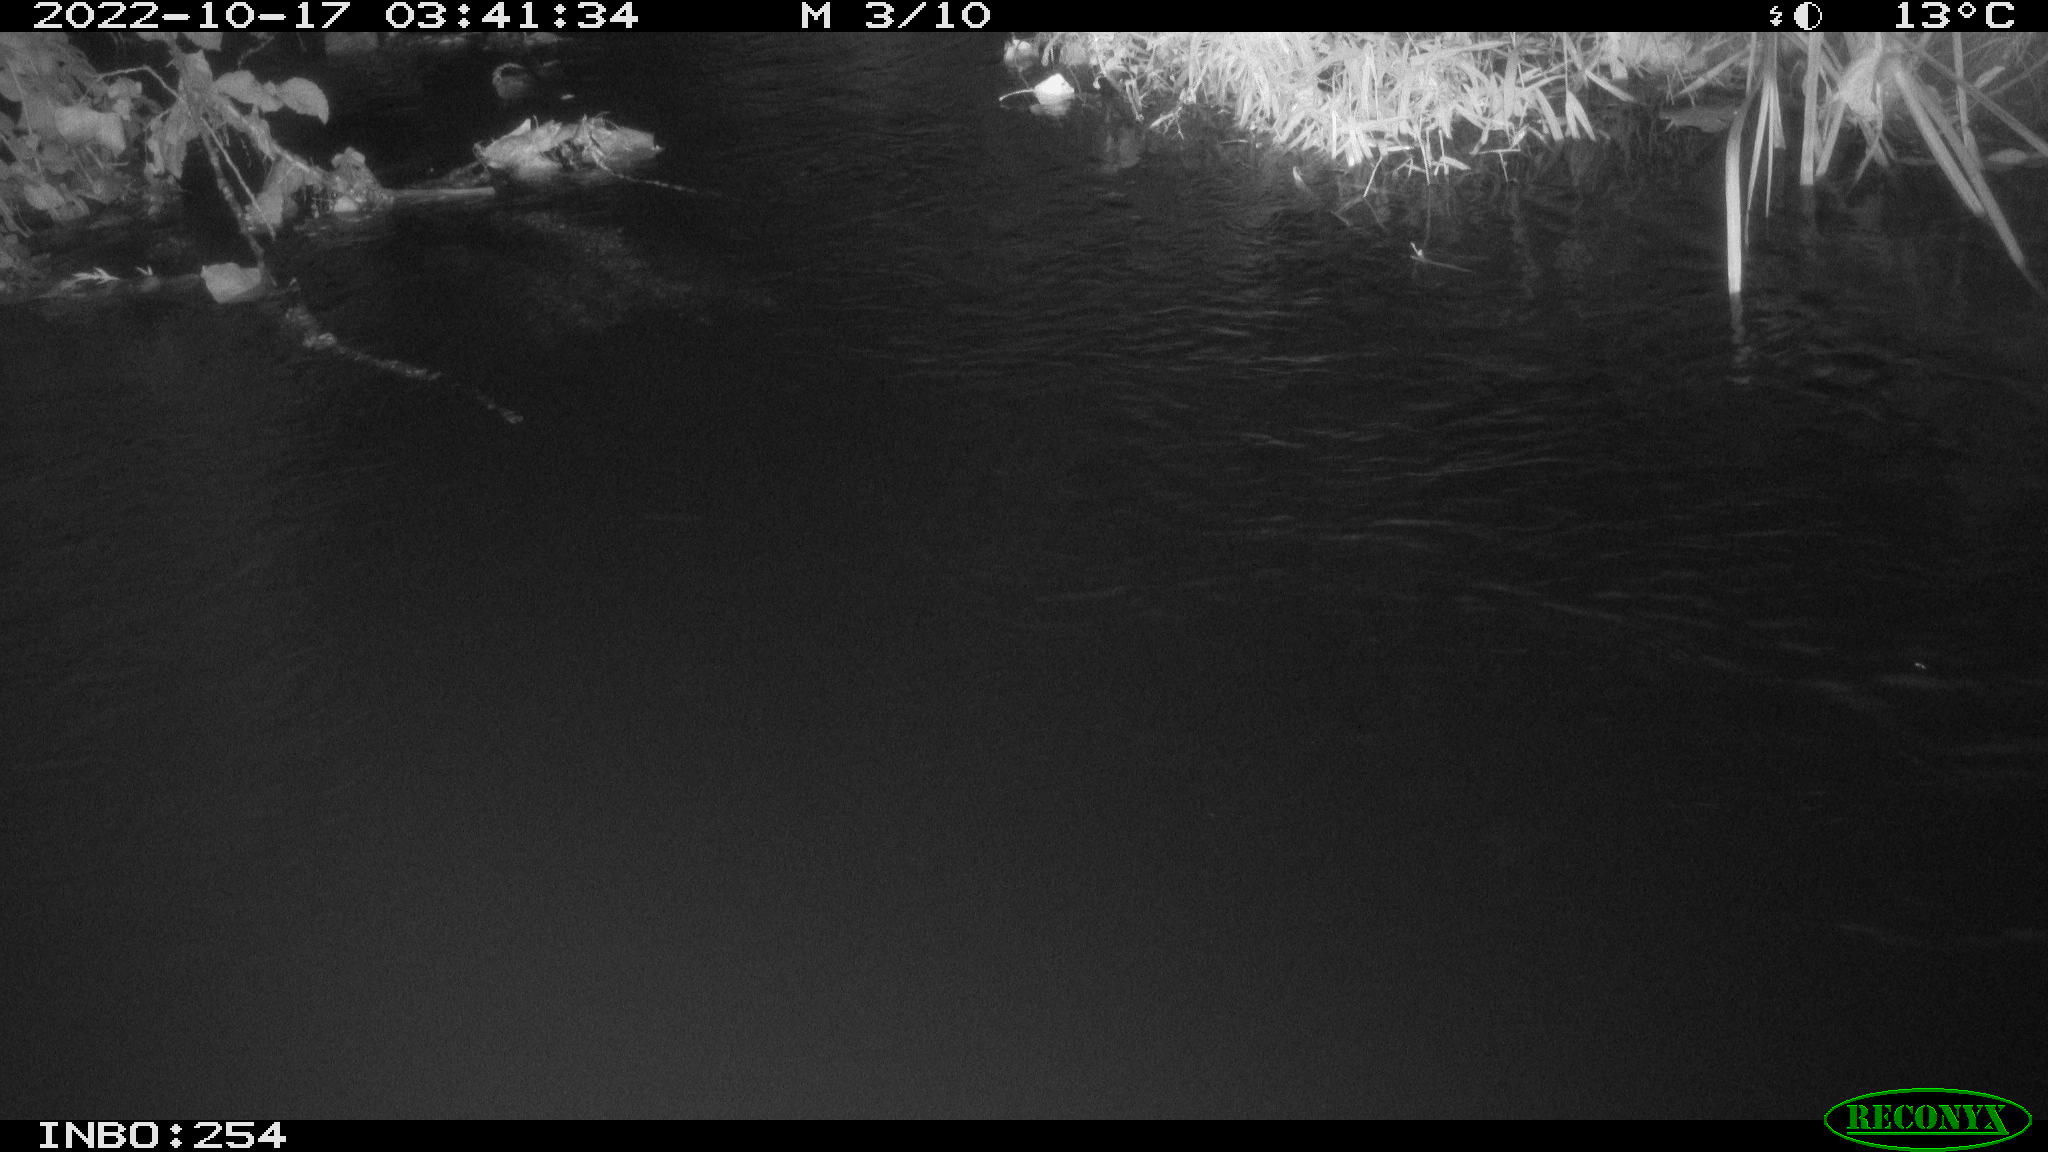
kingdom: Animalia
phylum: Chordata
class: Aves
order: Anseriformes
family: Anatidae
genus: Anas
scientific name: Anas
